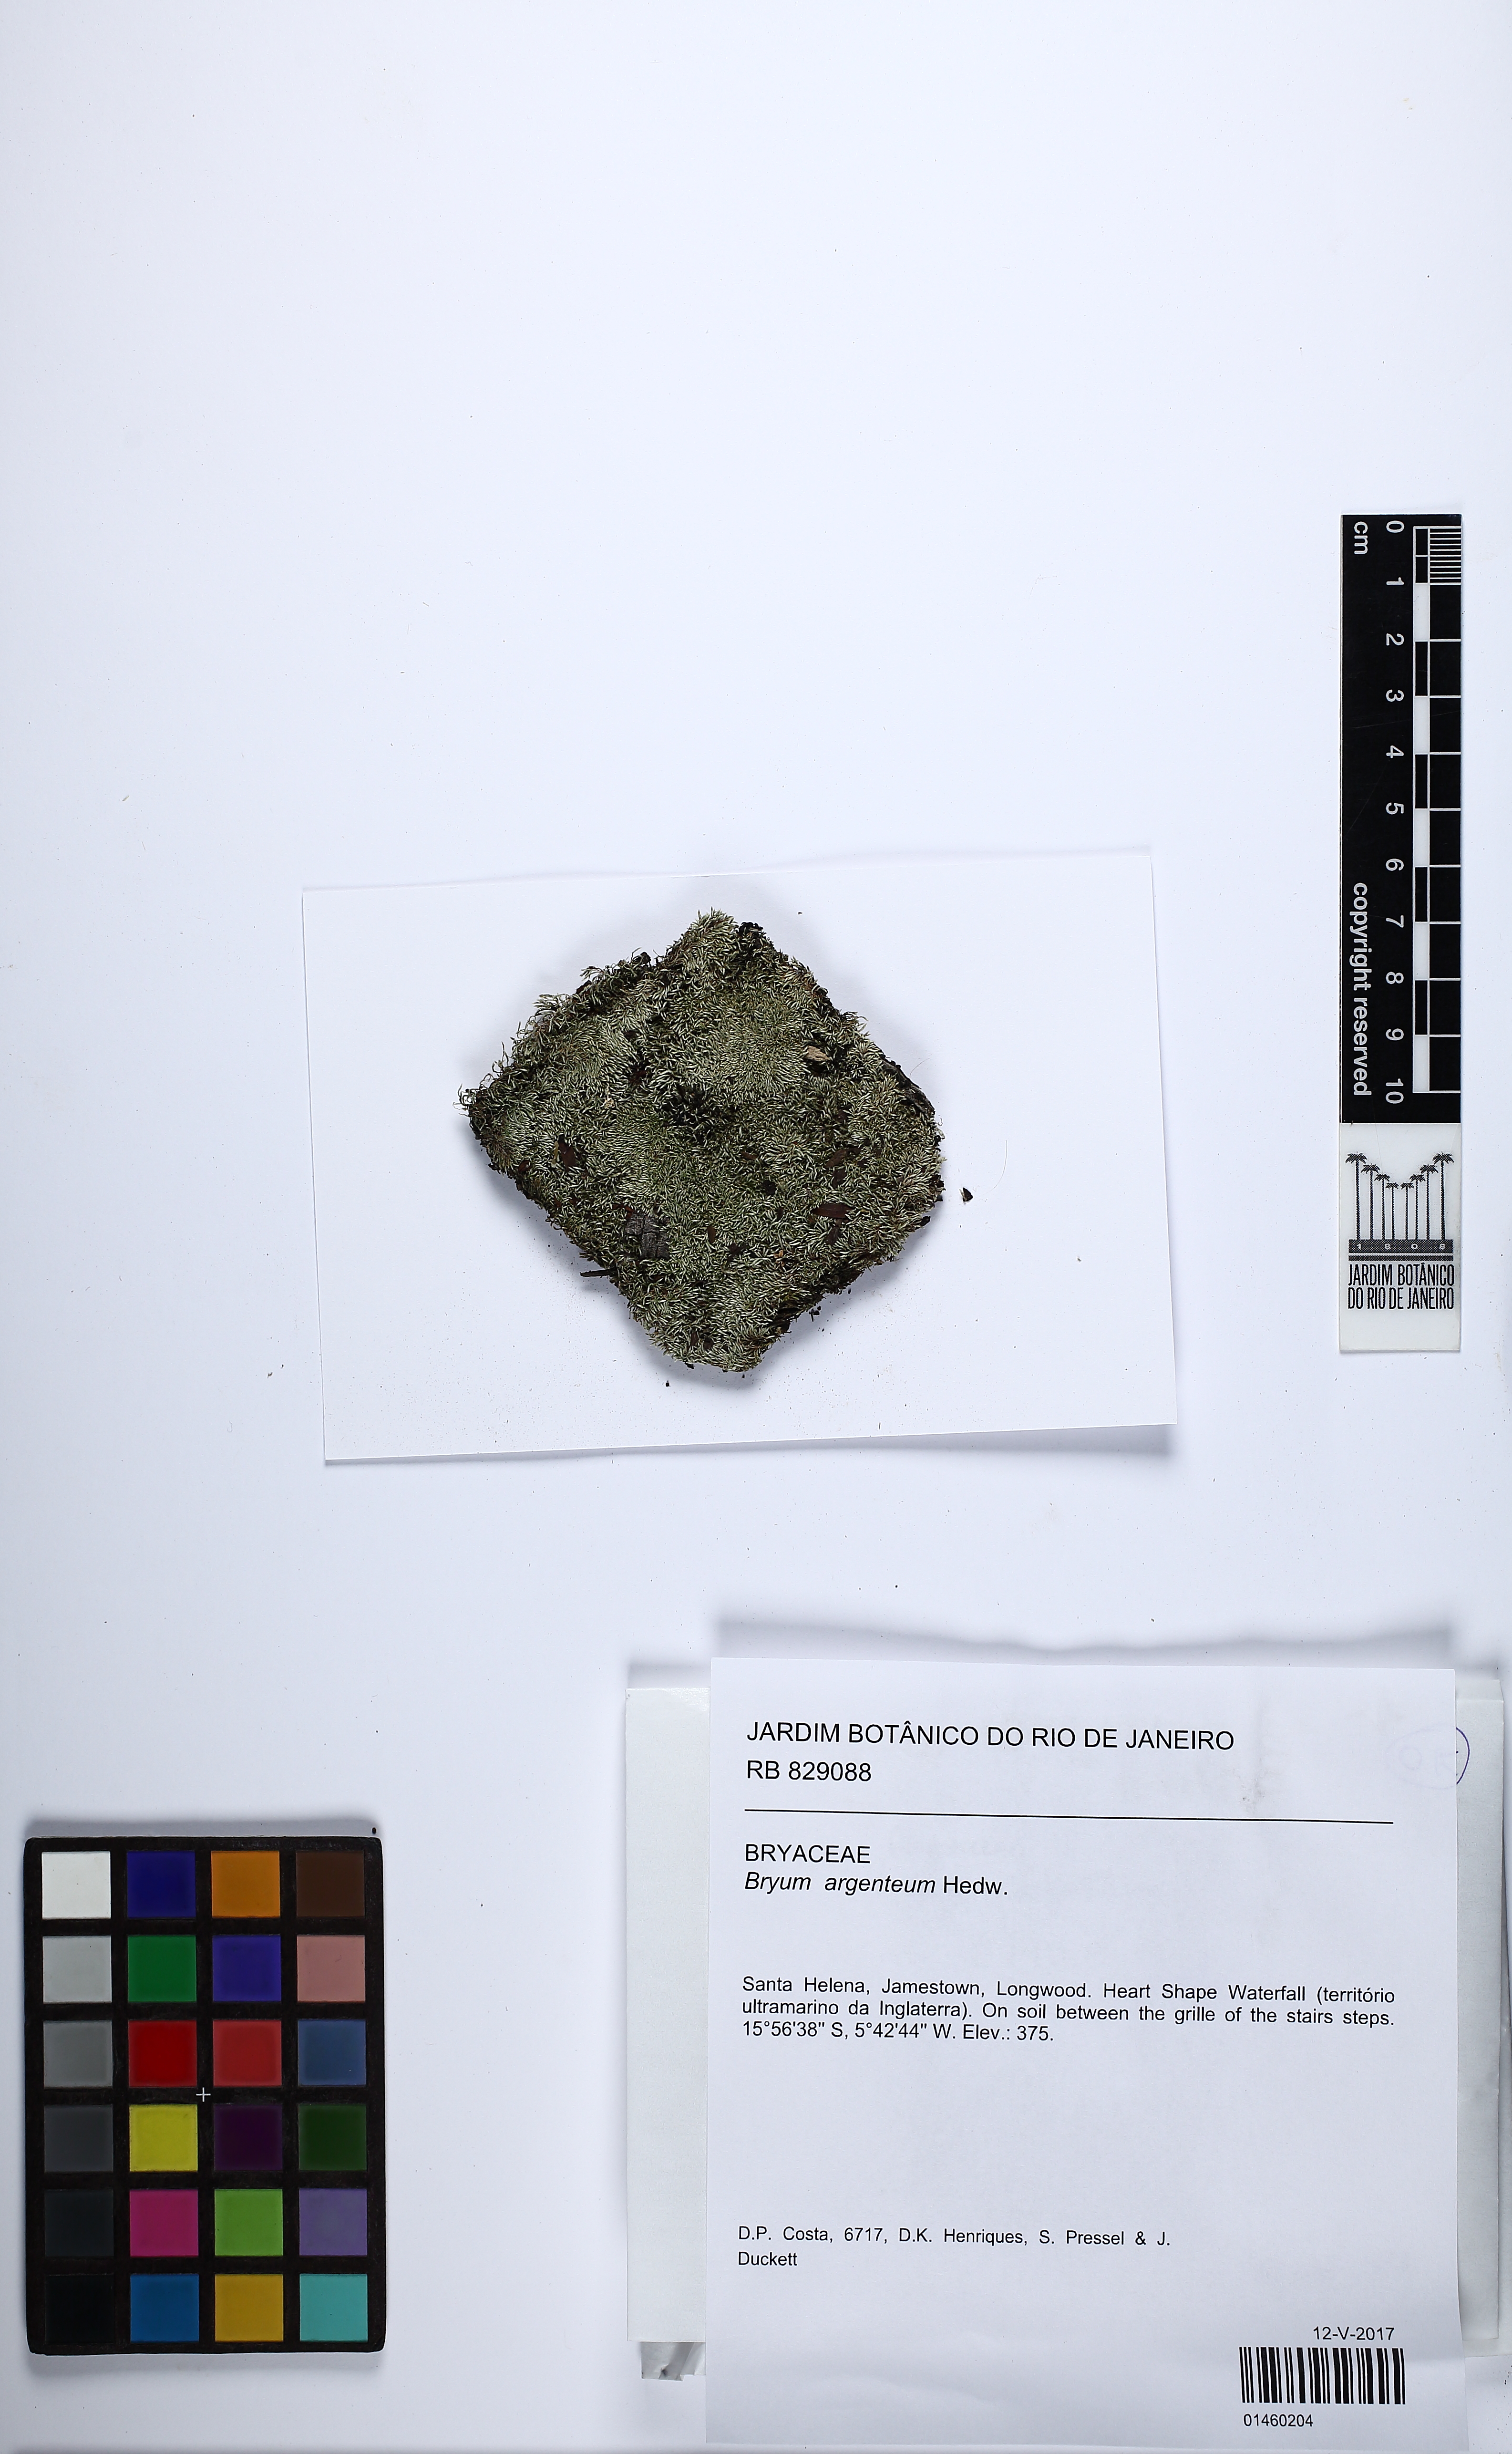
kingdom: Plantae
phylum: Bryophyta
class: Bryopsida
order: Bryales
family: Bryaceae
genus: Bryum
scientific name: Bryum argenteum
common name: Silver-moss
